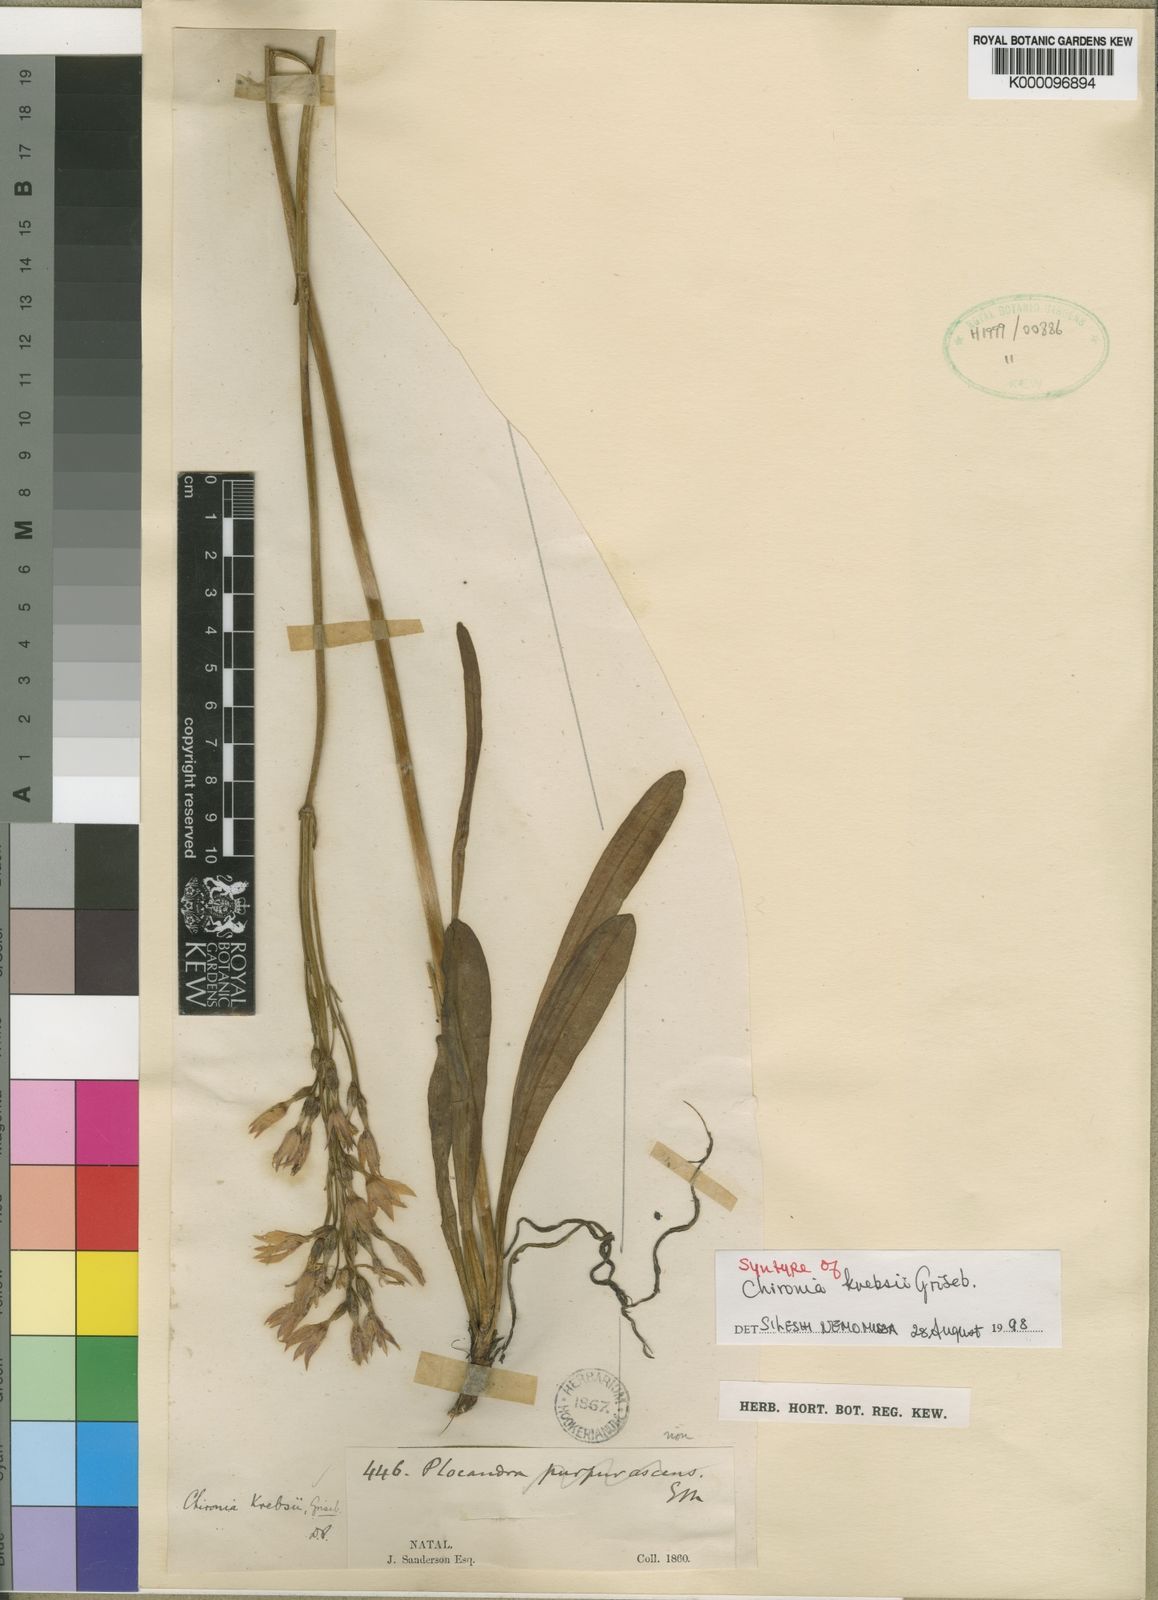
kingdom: Plantae
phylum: Tracheophyta
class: Magnoliopsida
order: Gentianales
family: Gentianaceae
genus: Chironia
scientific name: Chironia krebsii
